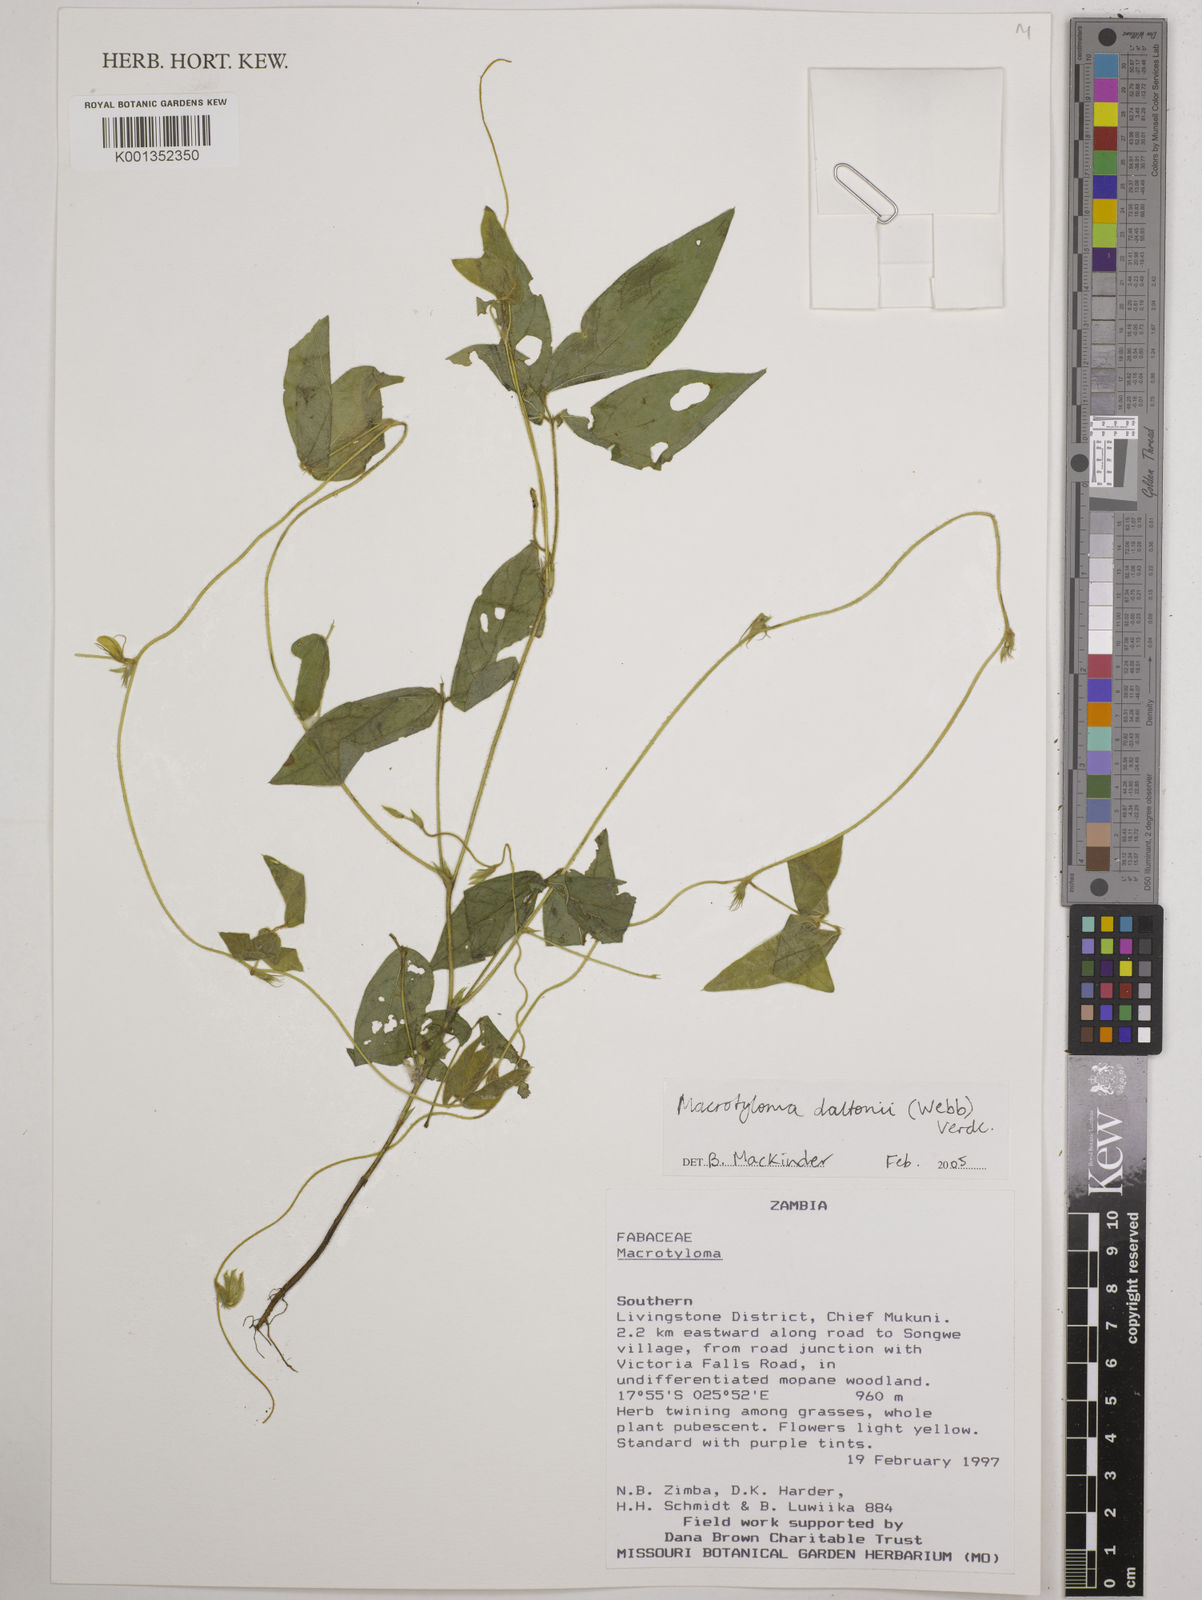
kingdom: Plantae
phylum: Tracheophyta
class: Magnoliopsida
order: Fabales
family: Fabaceae
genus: Macrotyloma
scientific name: Macrotyloma daltonii
